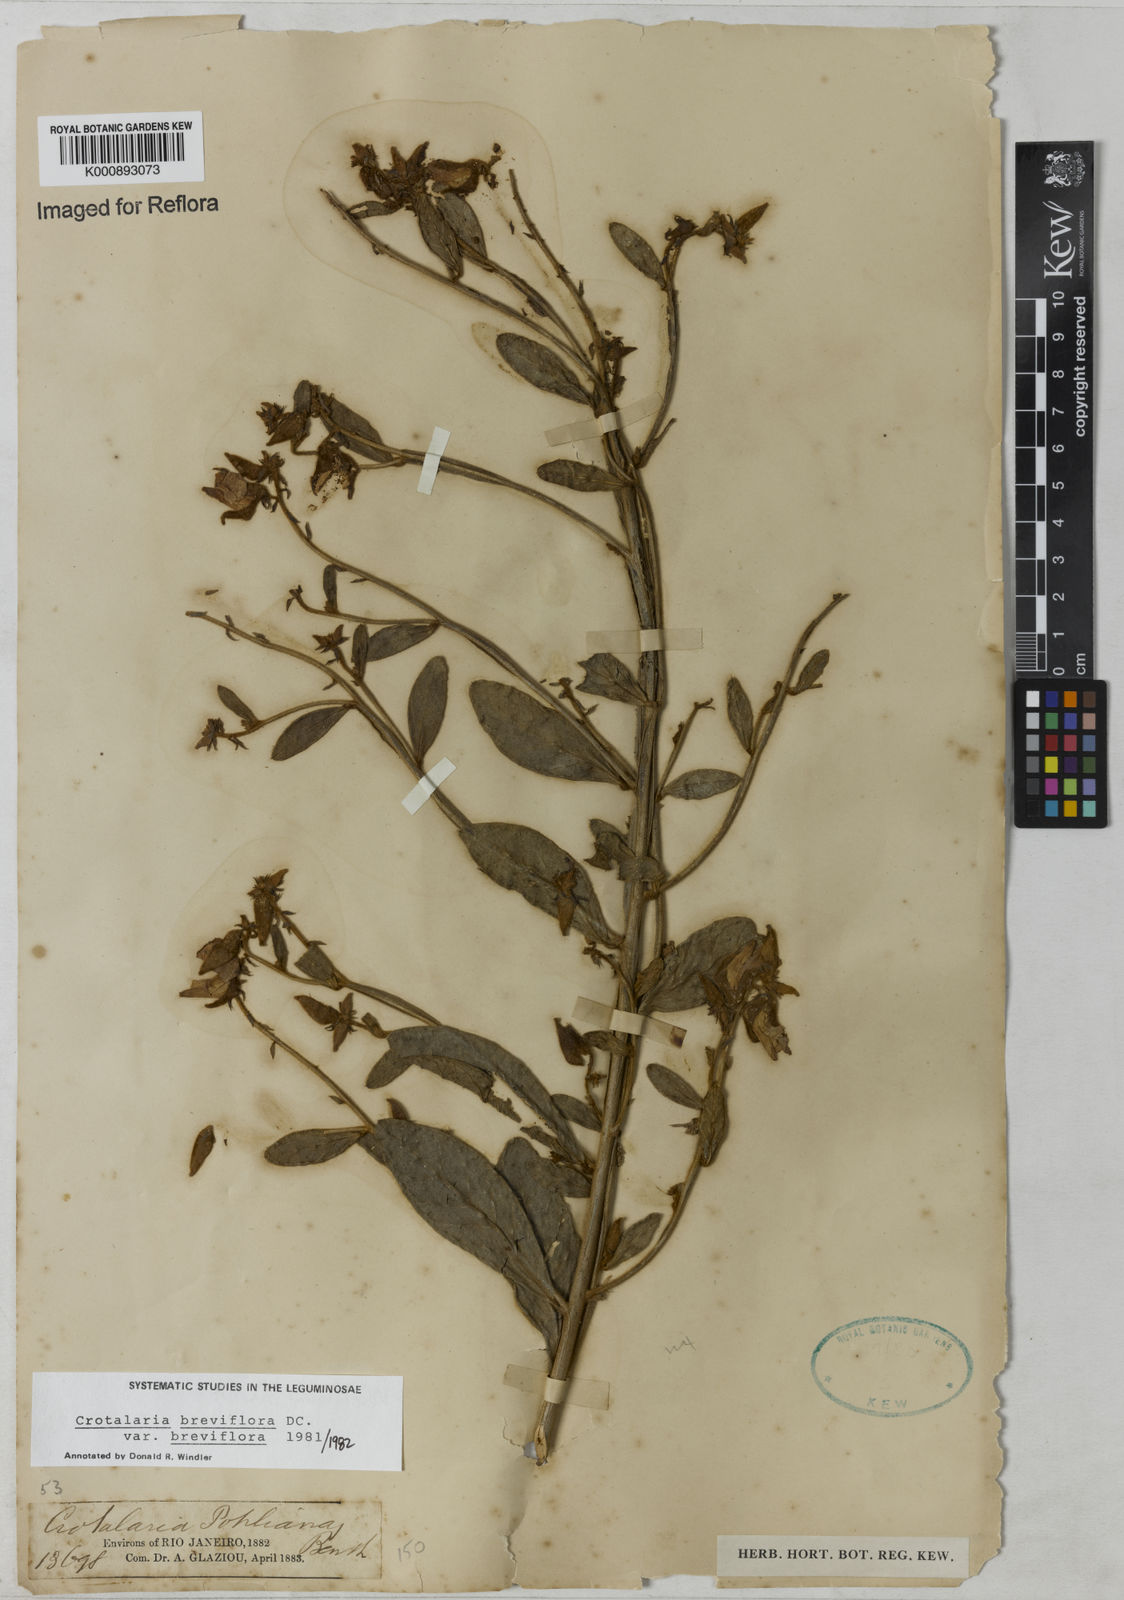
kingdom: Plantae
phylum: Tracheophyta
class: Magnoliopsida
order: Fabales
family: Fabaceae
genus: Crotalaria
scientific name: Crotalaria breviflora
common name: Short-flower crotalaria
